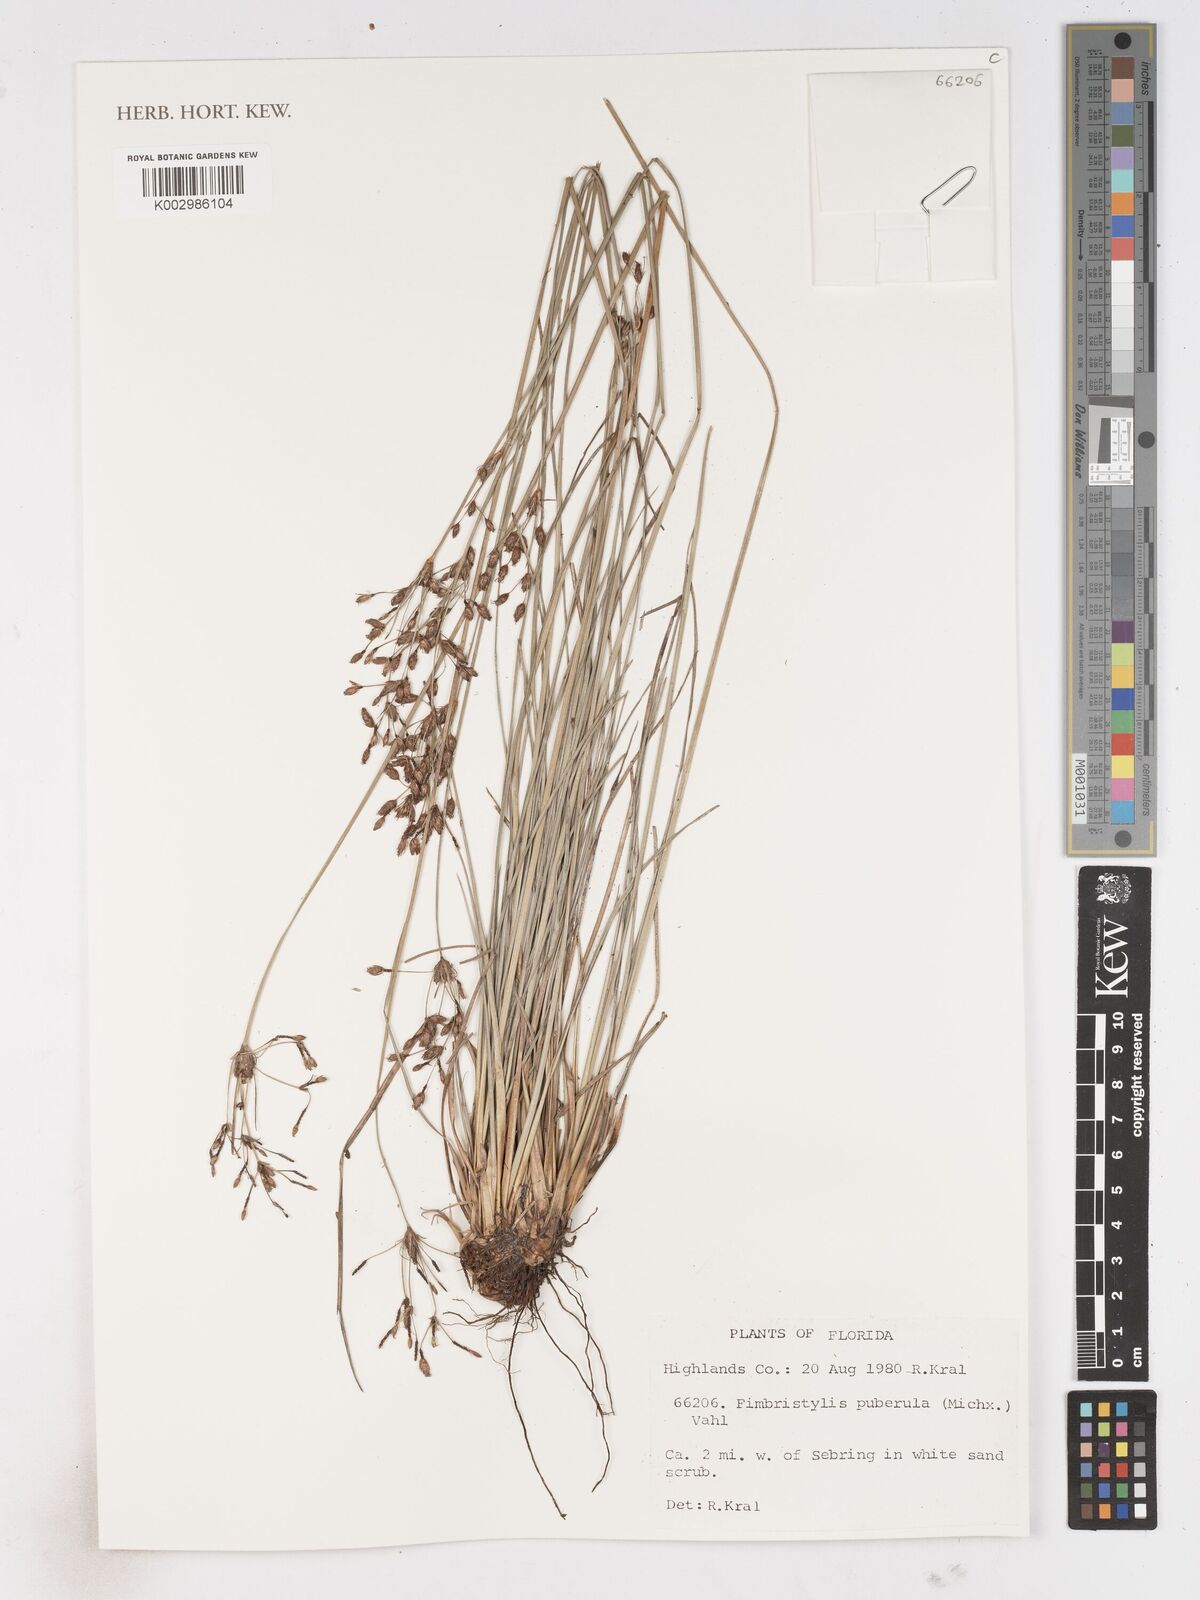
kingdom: Plantae
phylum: Tracheophyta
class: Liliopsida
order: Poales
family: Cyperaceae
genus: Fimbristylis
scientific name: Fimbristylis puberula
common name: Hairy fimbristylis
